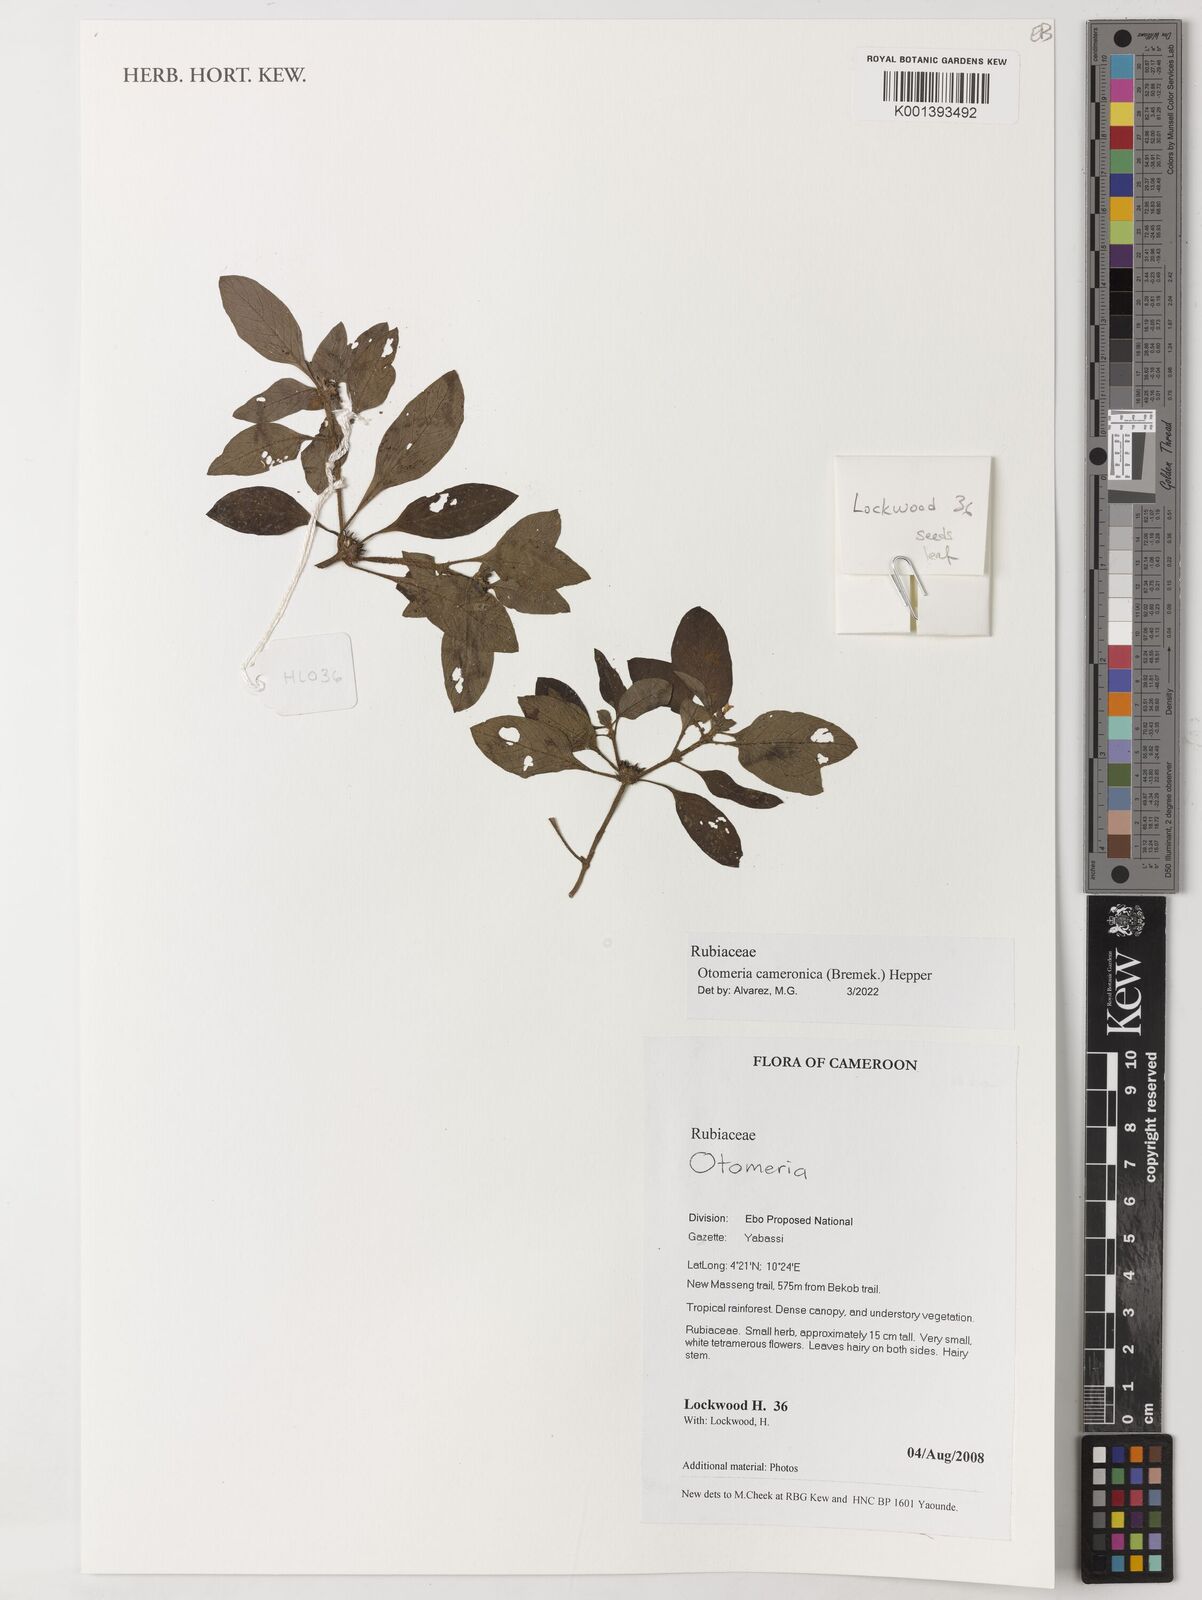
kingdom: Plantae
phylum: Tracheophyta
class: Magnoliopsida
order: Gentianales
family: Rubiaceae
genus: Otomeria
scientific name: Otomeria cameronica
